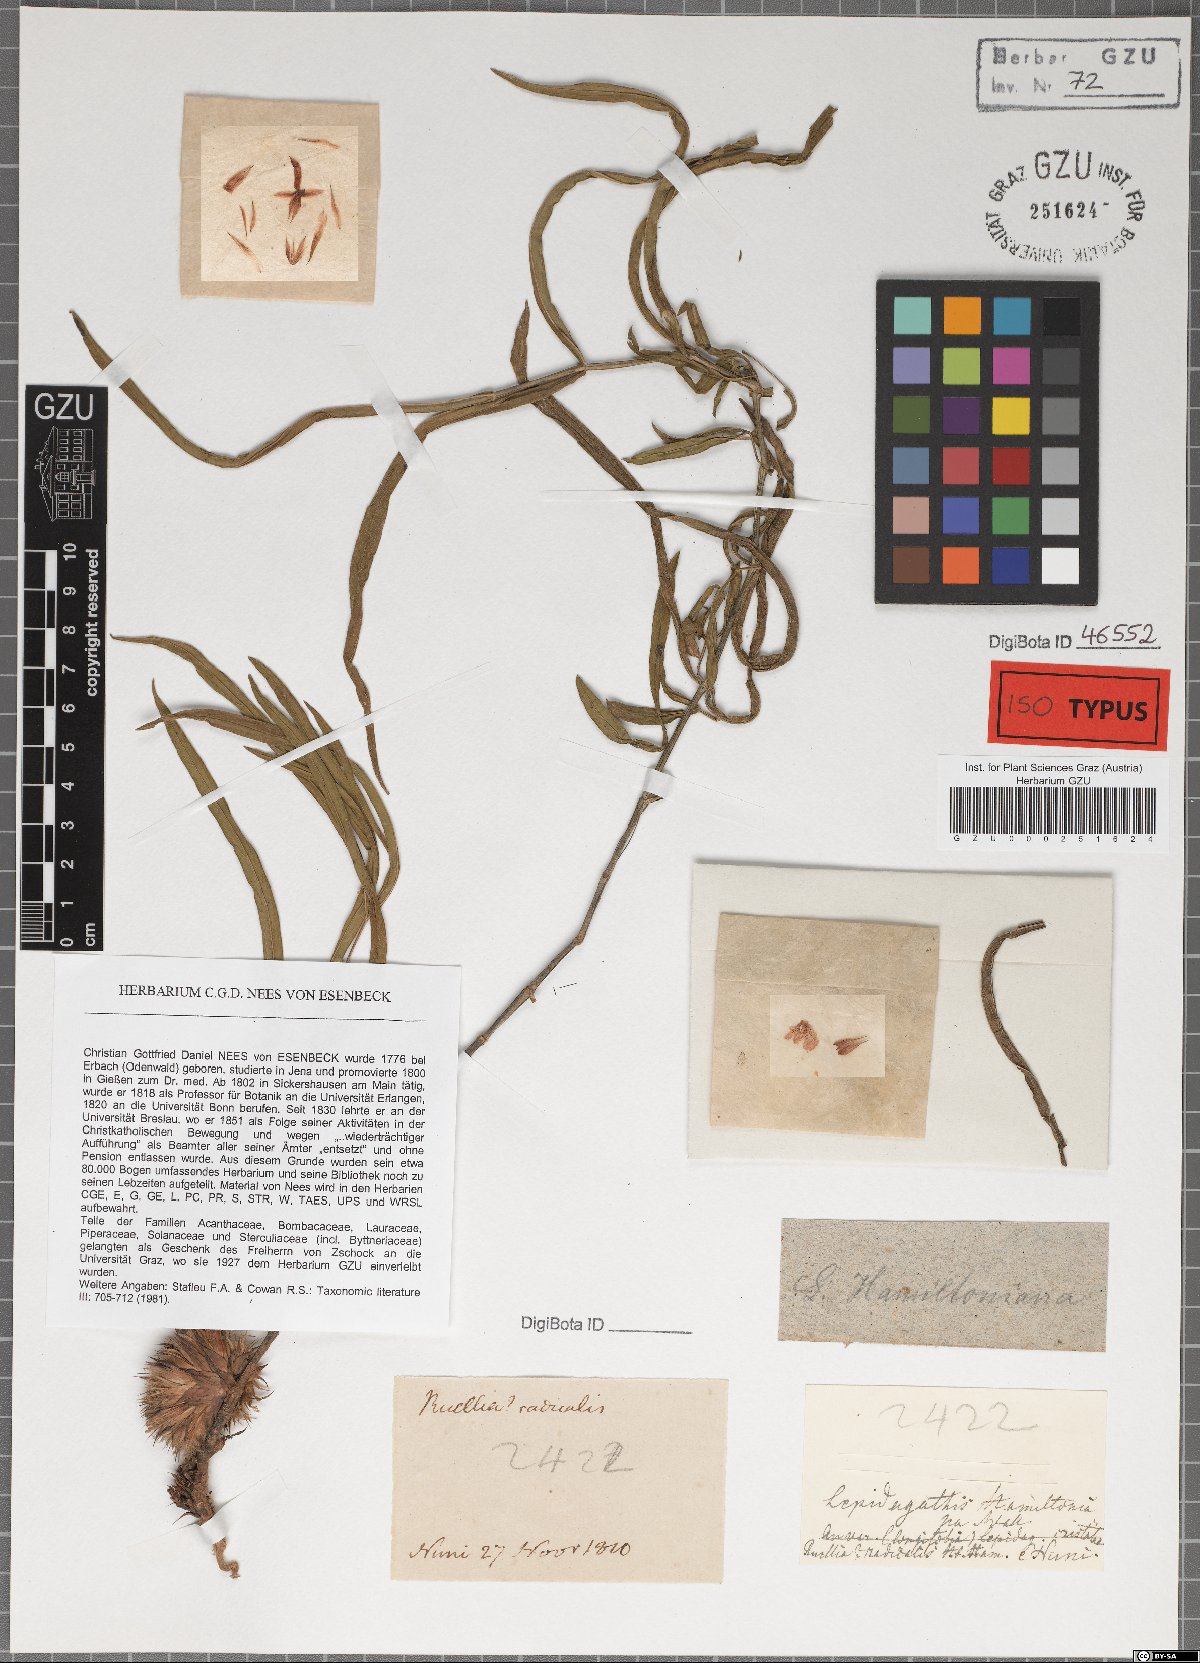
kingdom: Plantae
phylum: Tracheophyta
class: Magnoliopsida
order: Lamiales
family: Acanthaceae
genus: Lepidagathis
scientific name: Lepidagathis hamiltoniana
